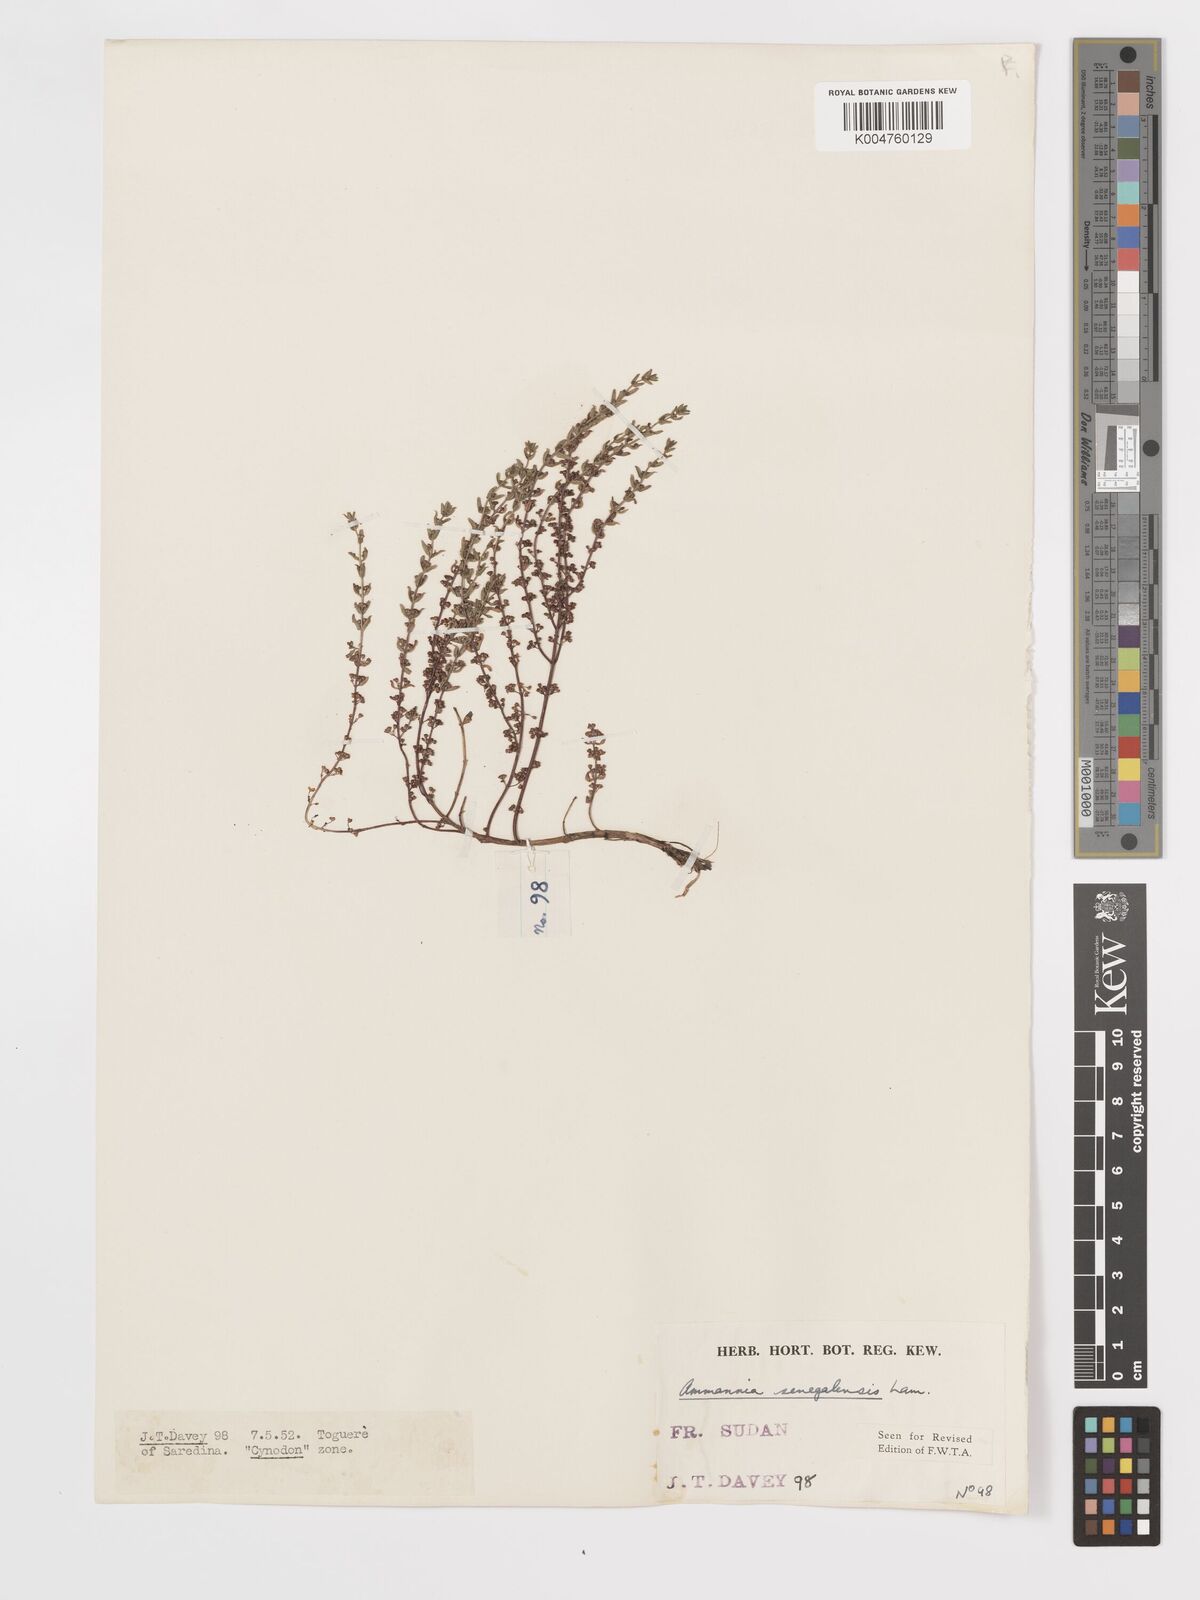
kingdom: Plantae
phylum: Tracheophyta
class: Magnoliopsida
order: Myrtales
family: Lythraceae
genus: Ammannia
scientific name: Ammannia senegalensis
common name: Red ammannia
